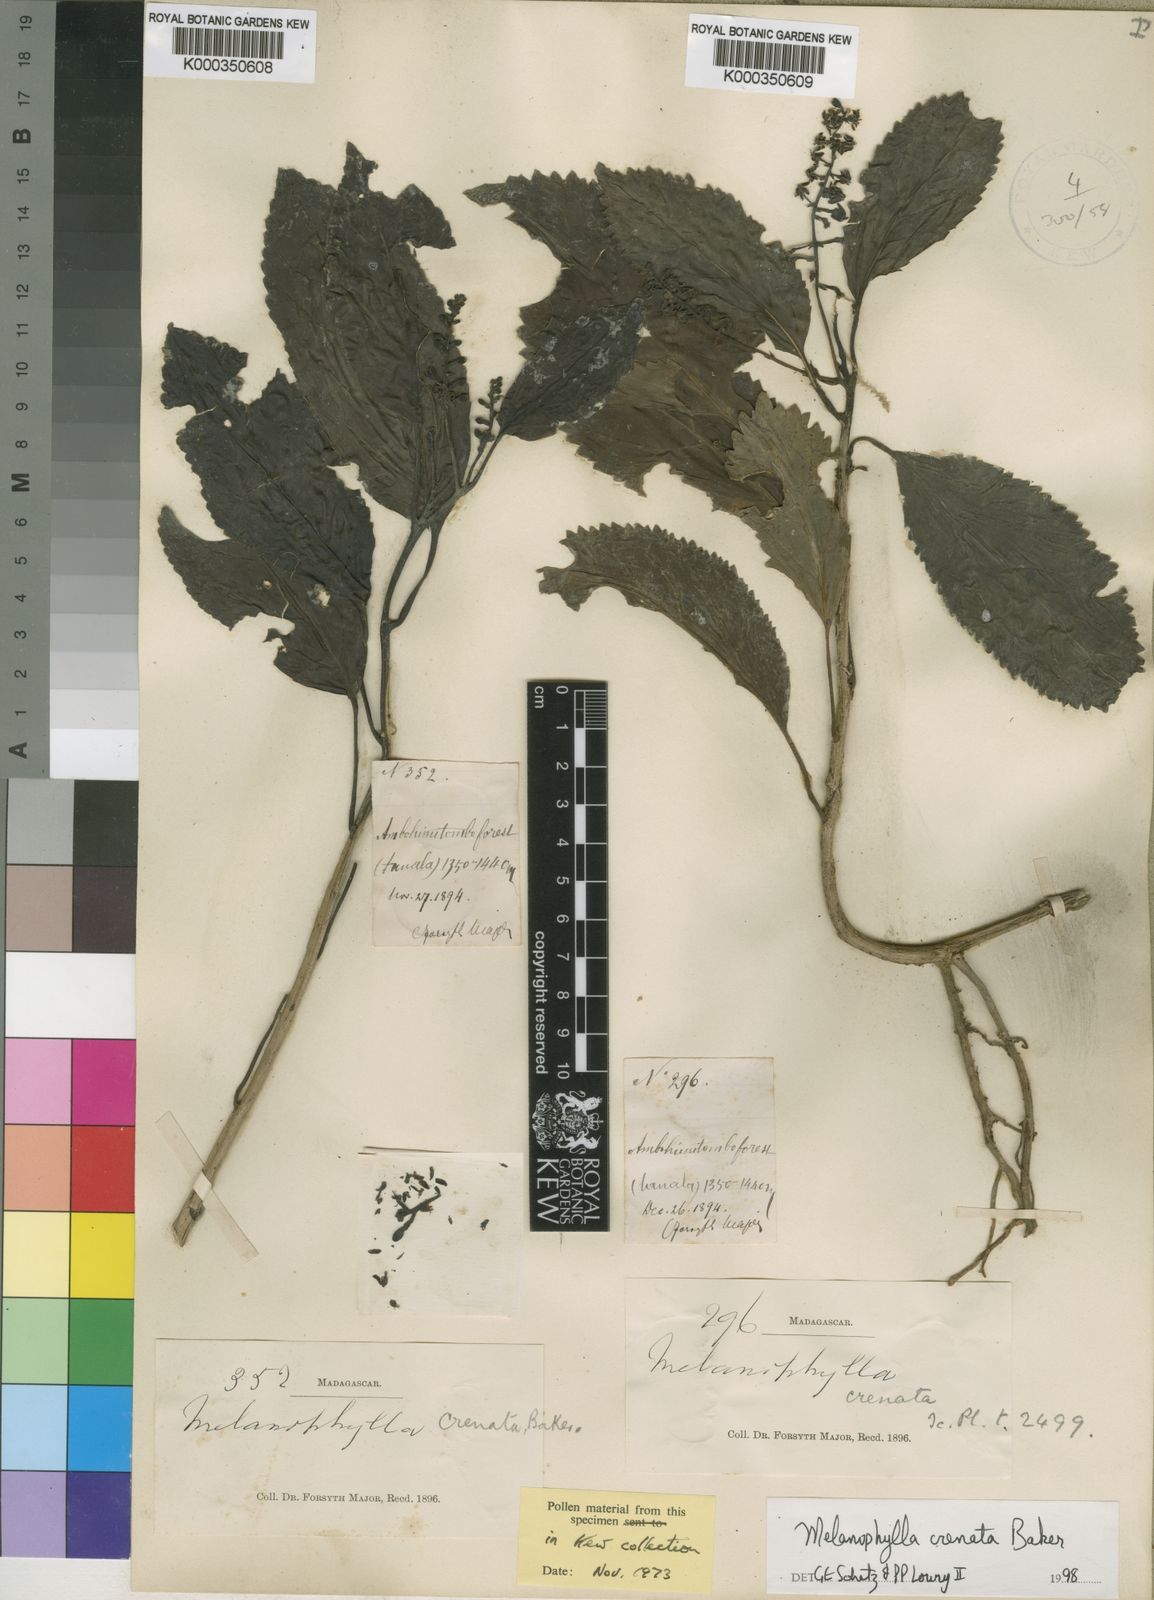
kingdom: Plantae
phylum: Tracheophyta
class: Magnoliopsida
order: Apiales
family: Torricelliaceae
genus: Melanophylla
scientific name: Melanophylla crenata
